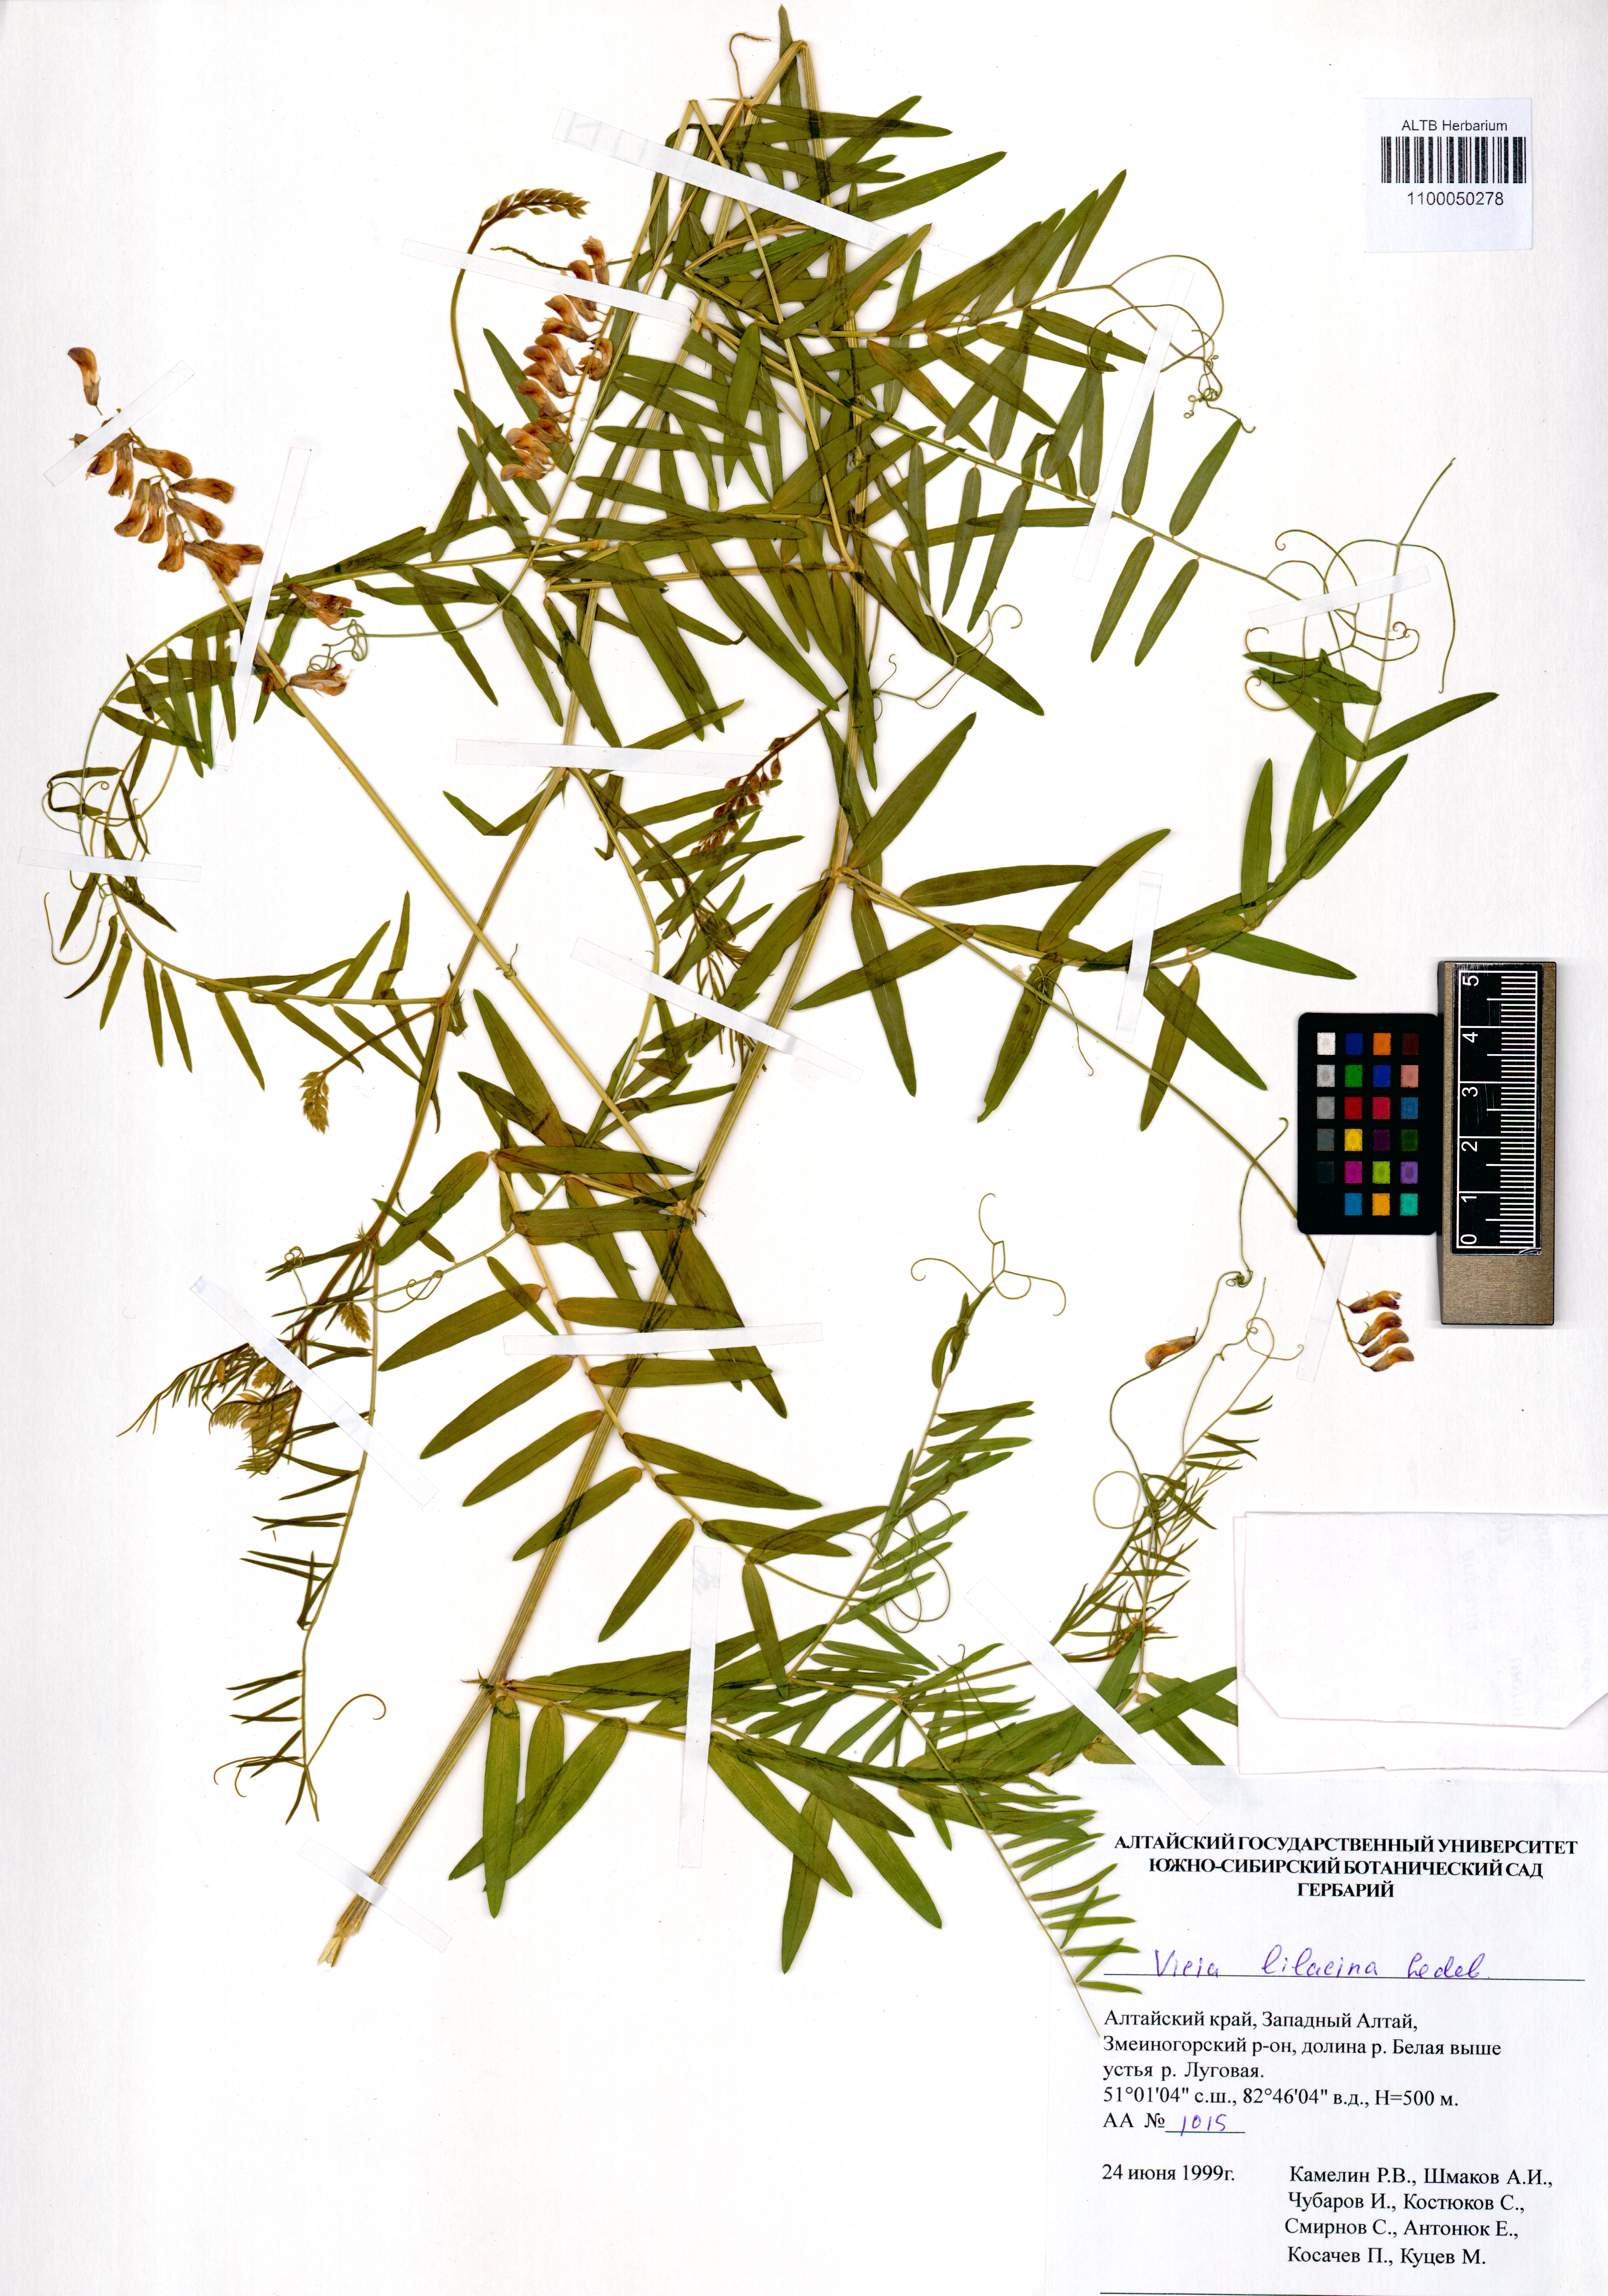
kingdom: Plantae
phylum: Tracheophyta
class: Magnoliopsida
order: Fabales
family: Fabaceae
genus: Vicia
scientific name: Vicia lilacina
